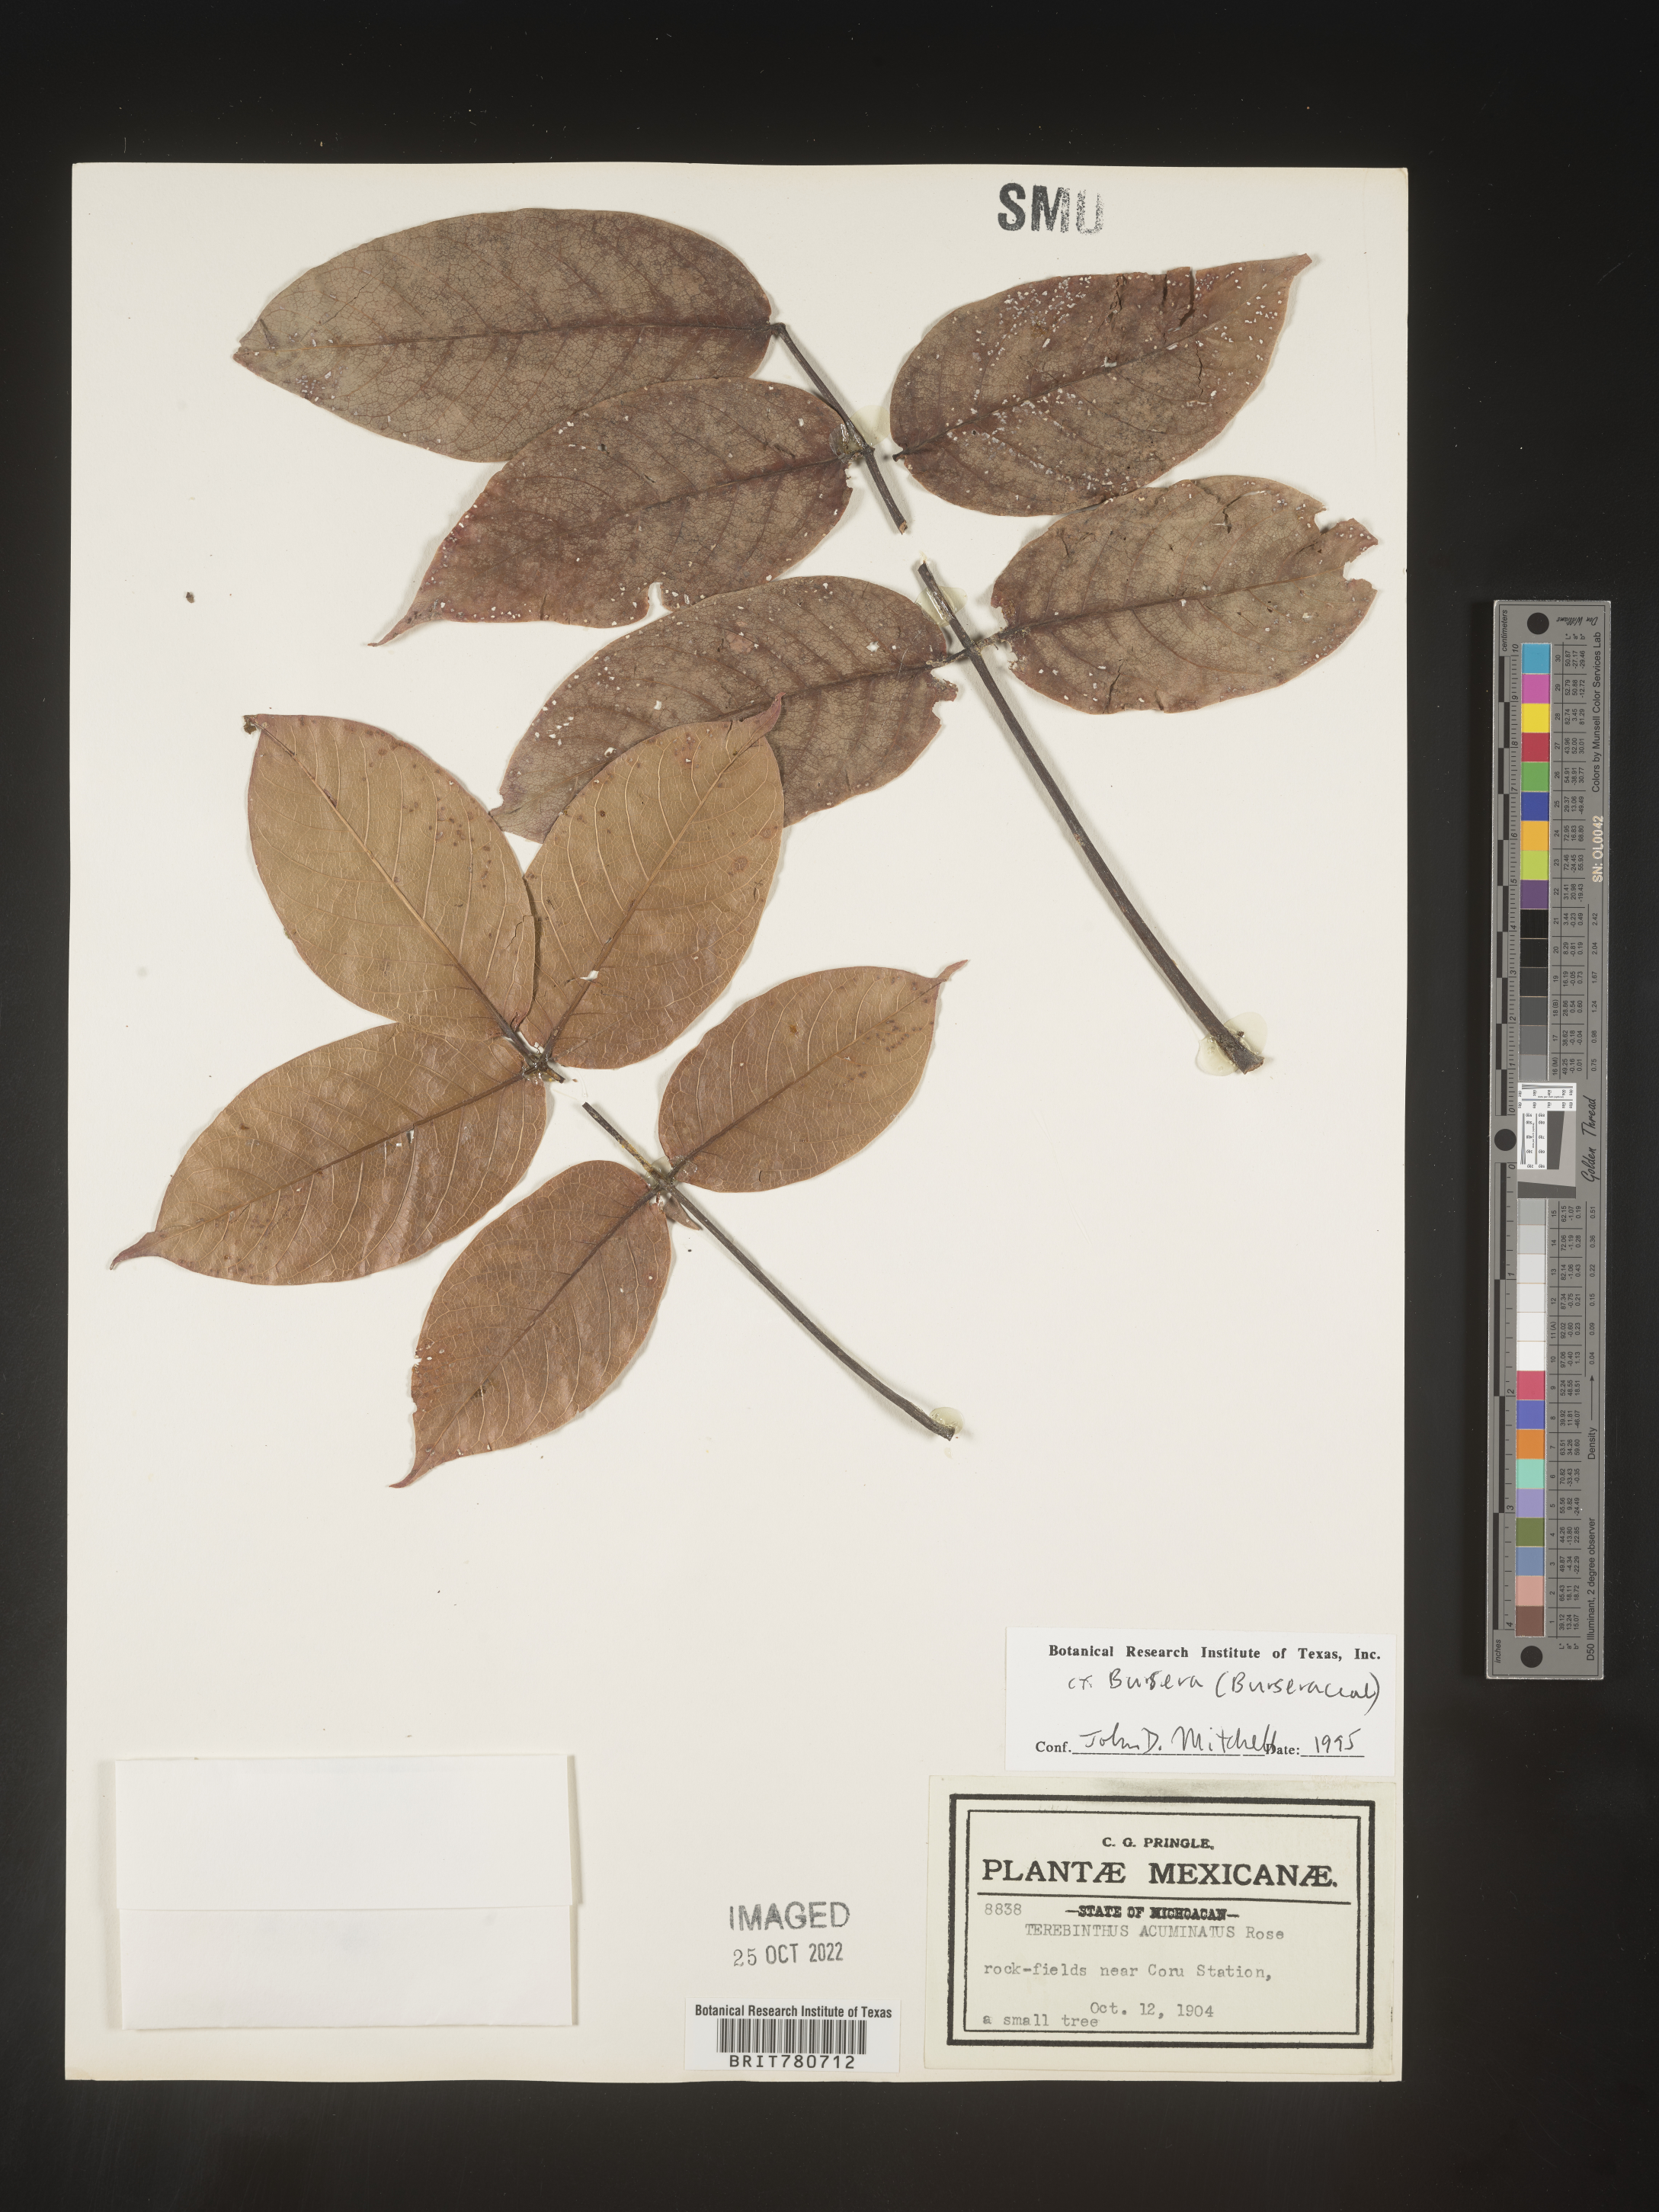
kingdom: Plantae
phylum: Tracheophyta
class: Magnoliopsida
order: Sapindales
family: Burseraceae
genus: Protium
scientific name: Protium
